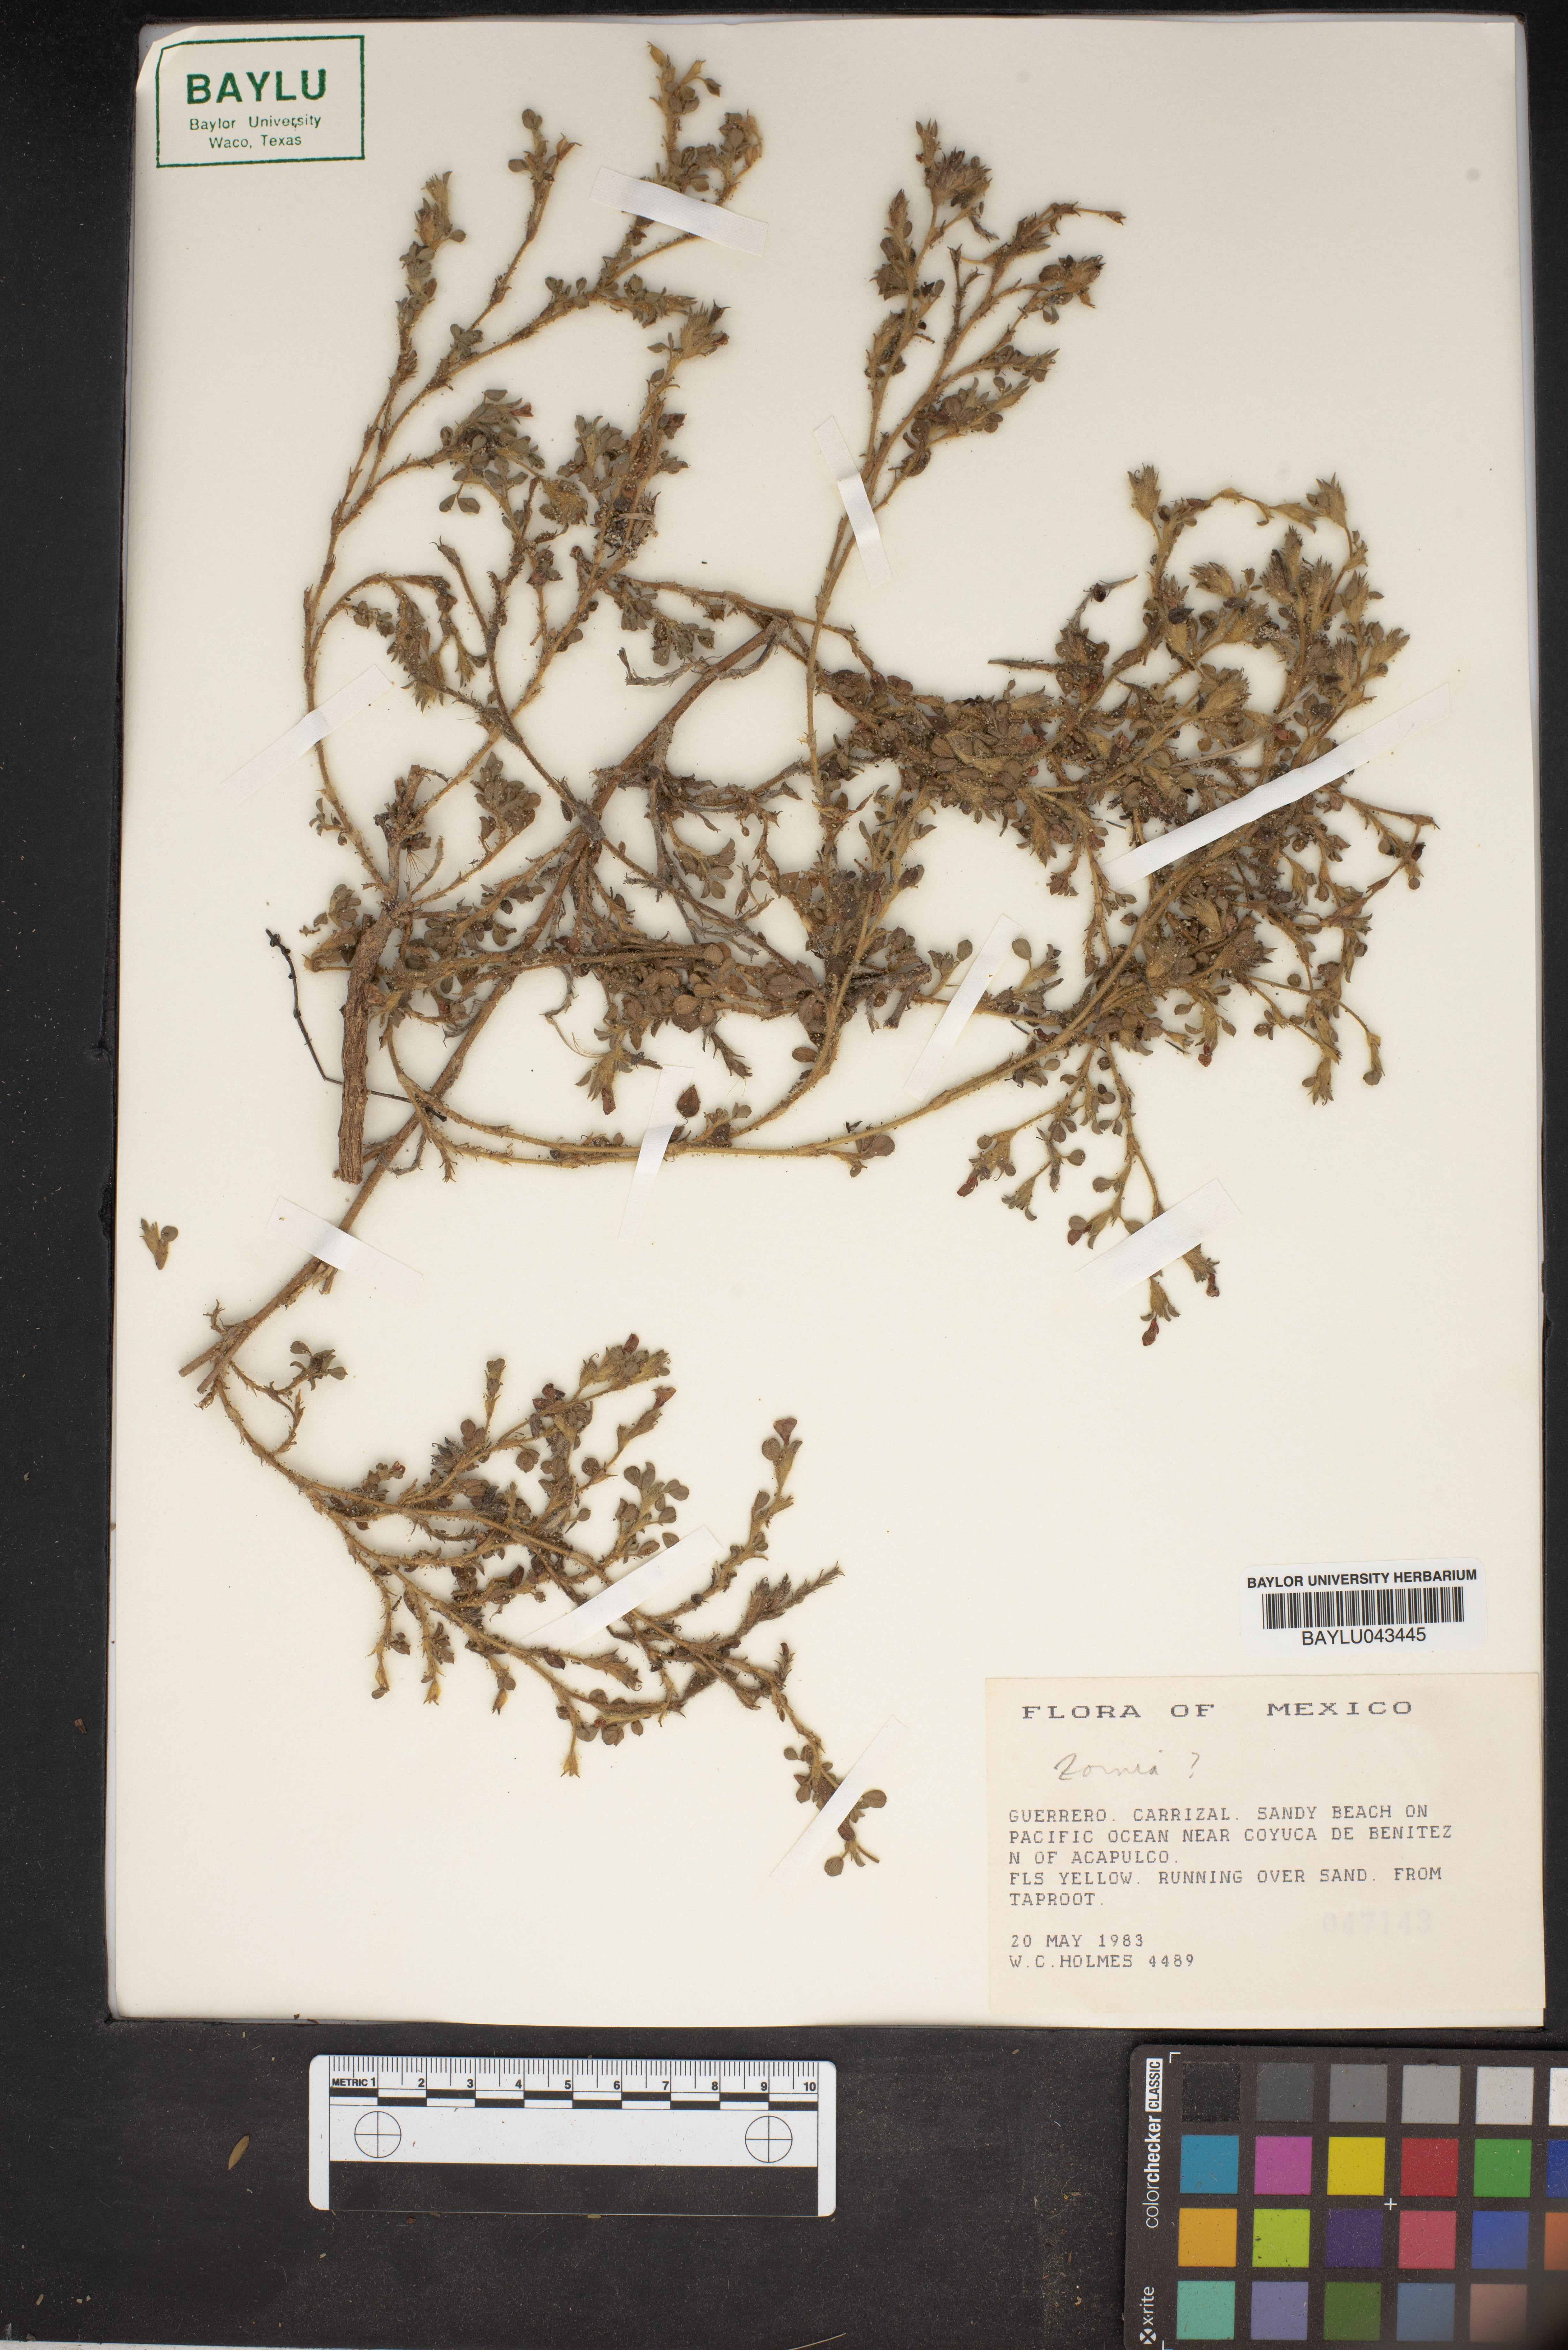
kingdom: Plantae
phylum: Tracheophyta
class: Magnoliopsida
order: Fabales
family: Fabaceae
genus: Zornia
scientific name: Zornia
